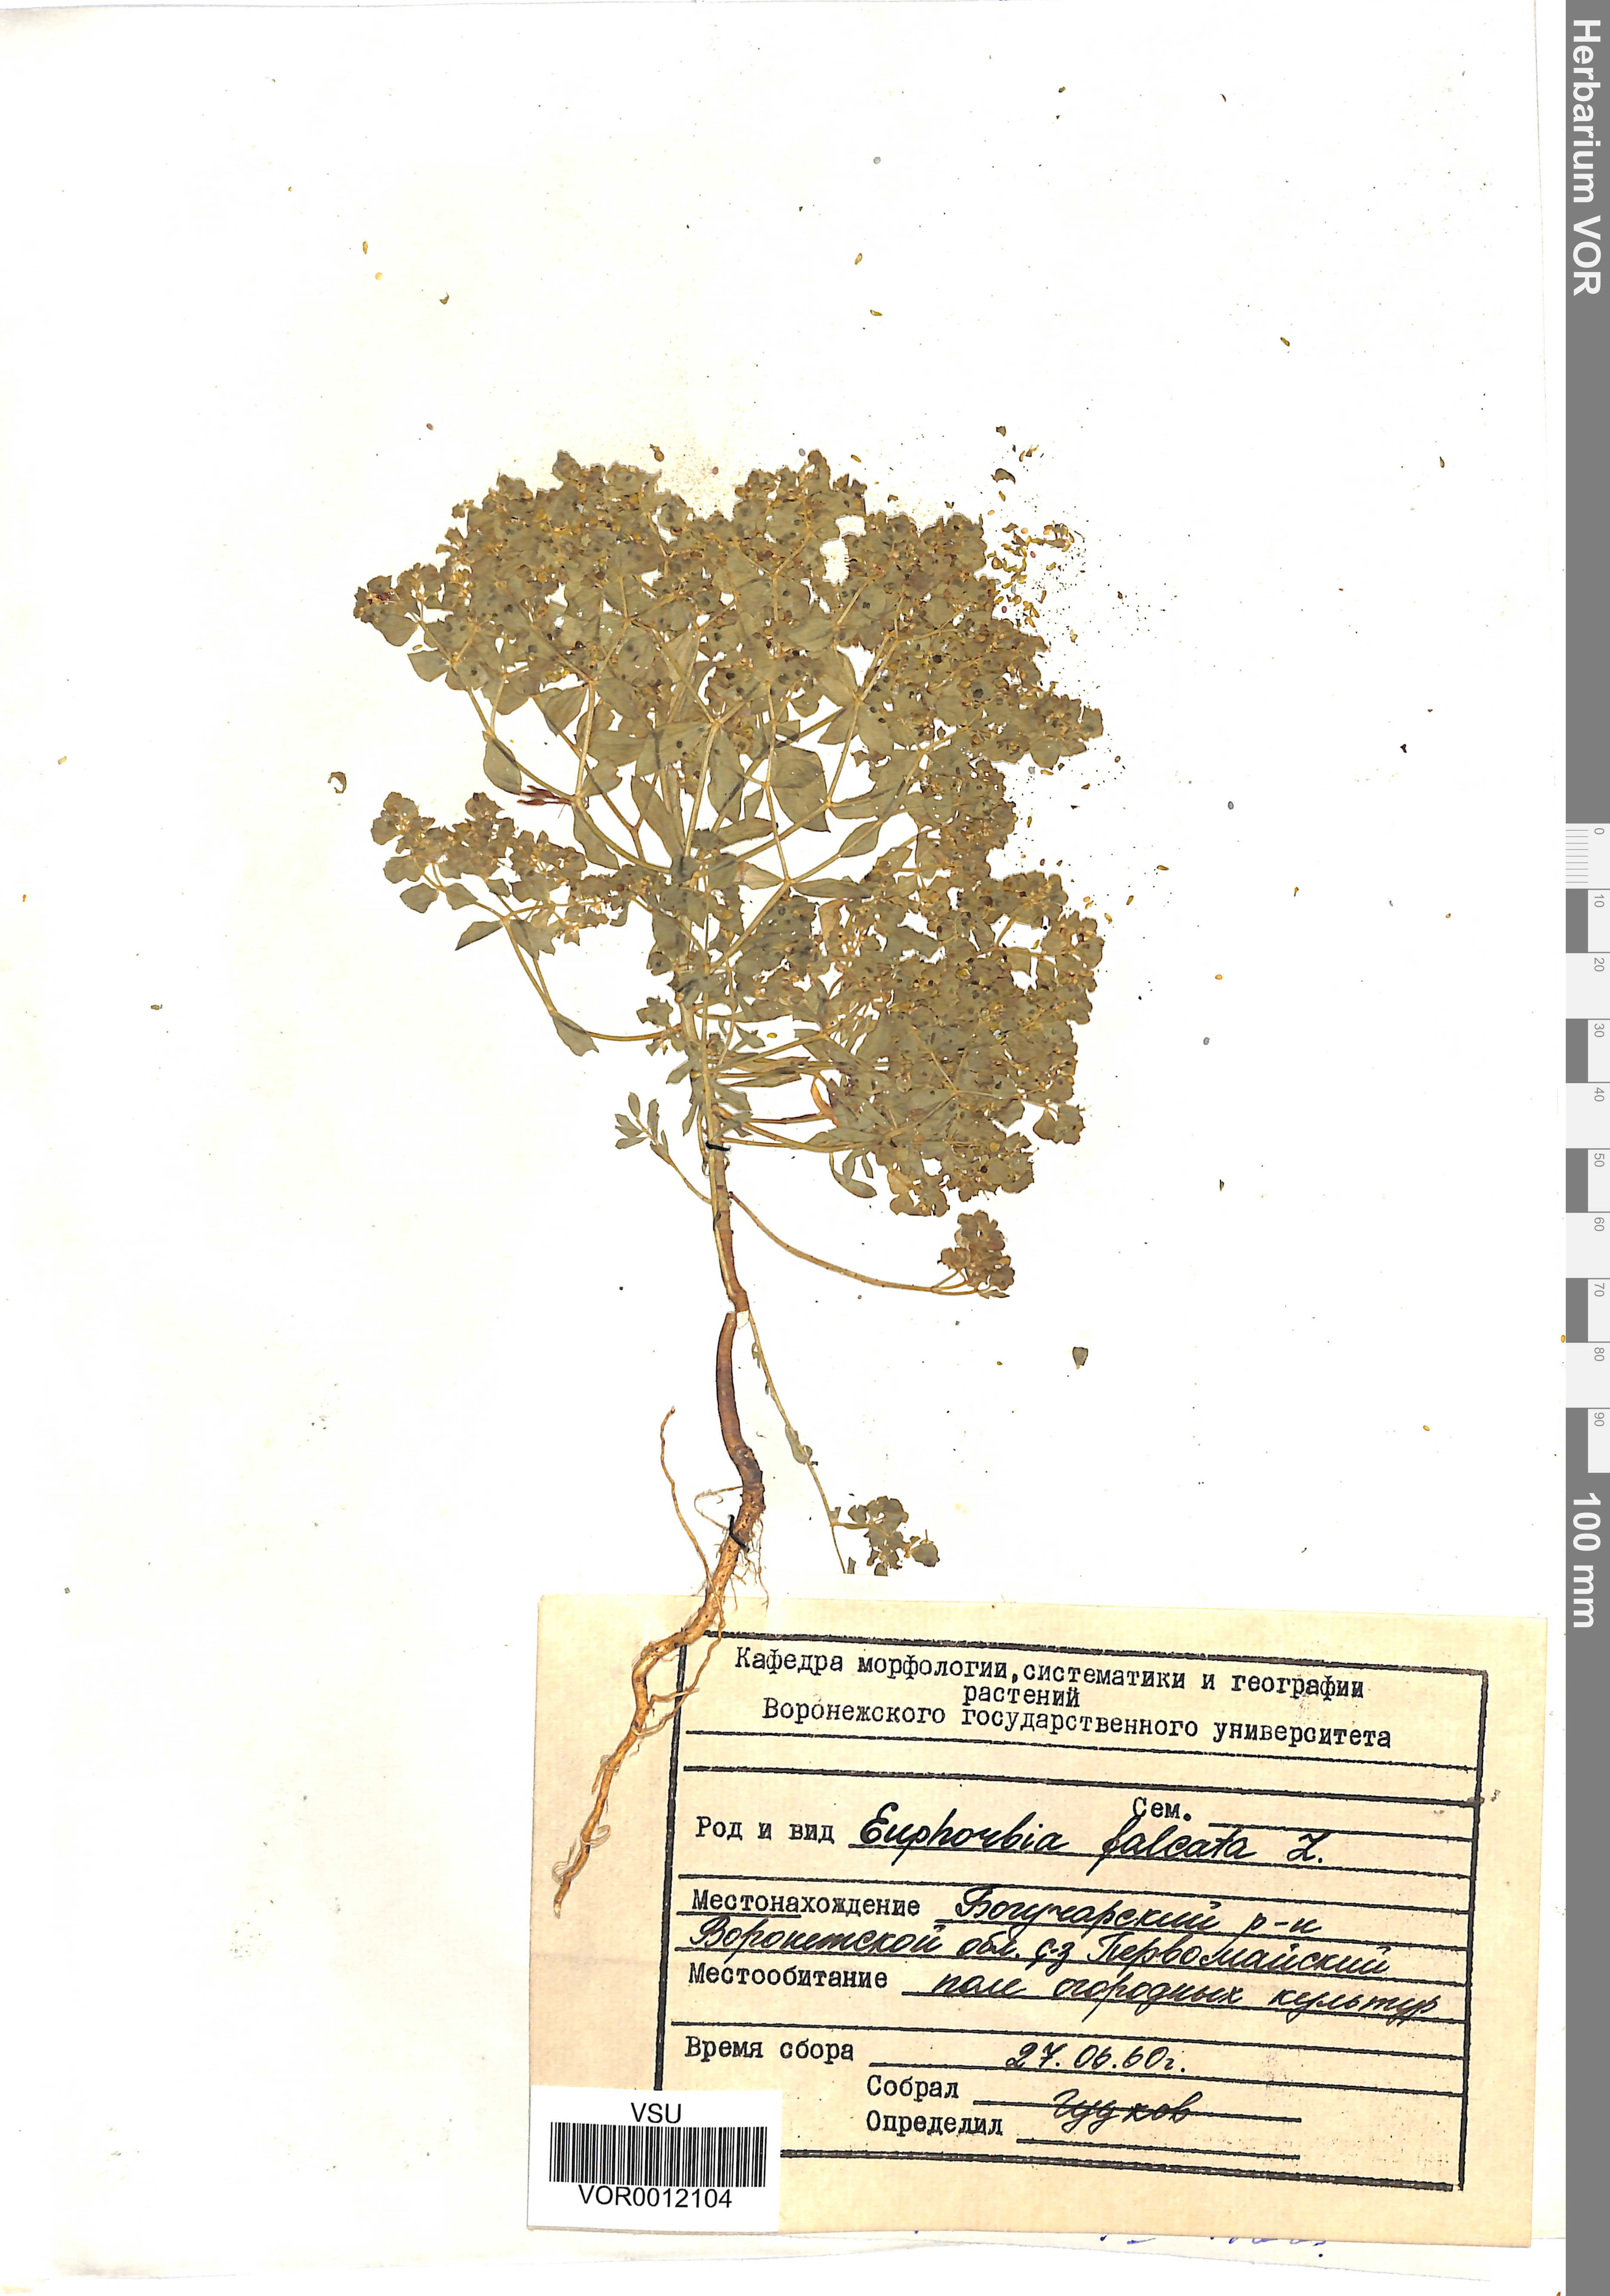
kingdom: Plantae
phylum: Tracheophyta
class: Magnoliopsida
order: Malpighiales
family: Euphorbiaceae
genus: Euphorbia
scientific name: Euphorbia falcata
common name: Sickle spurge
